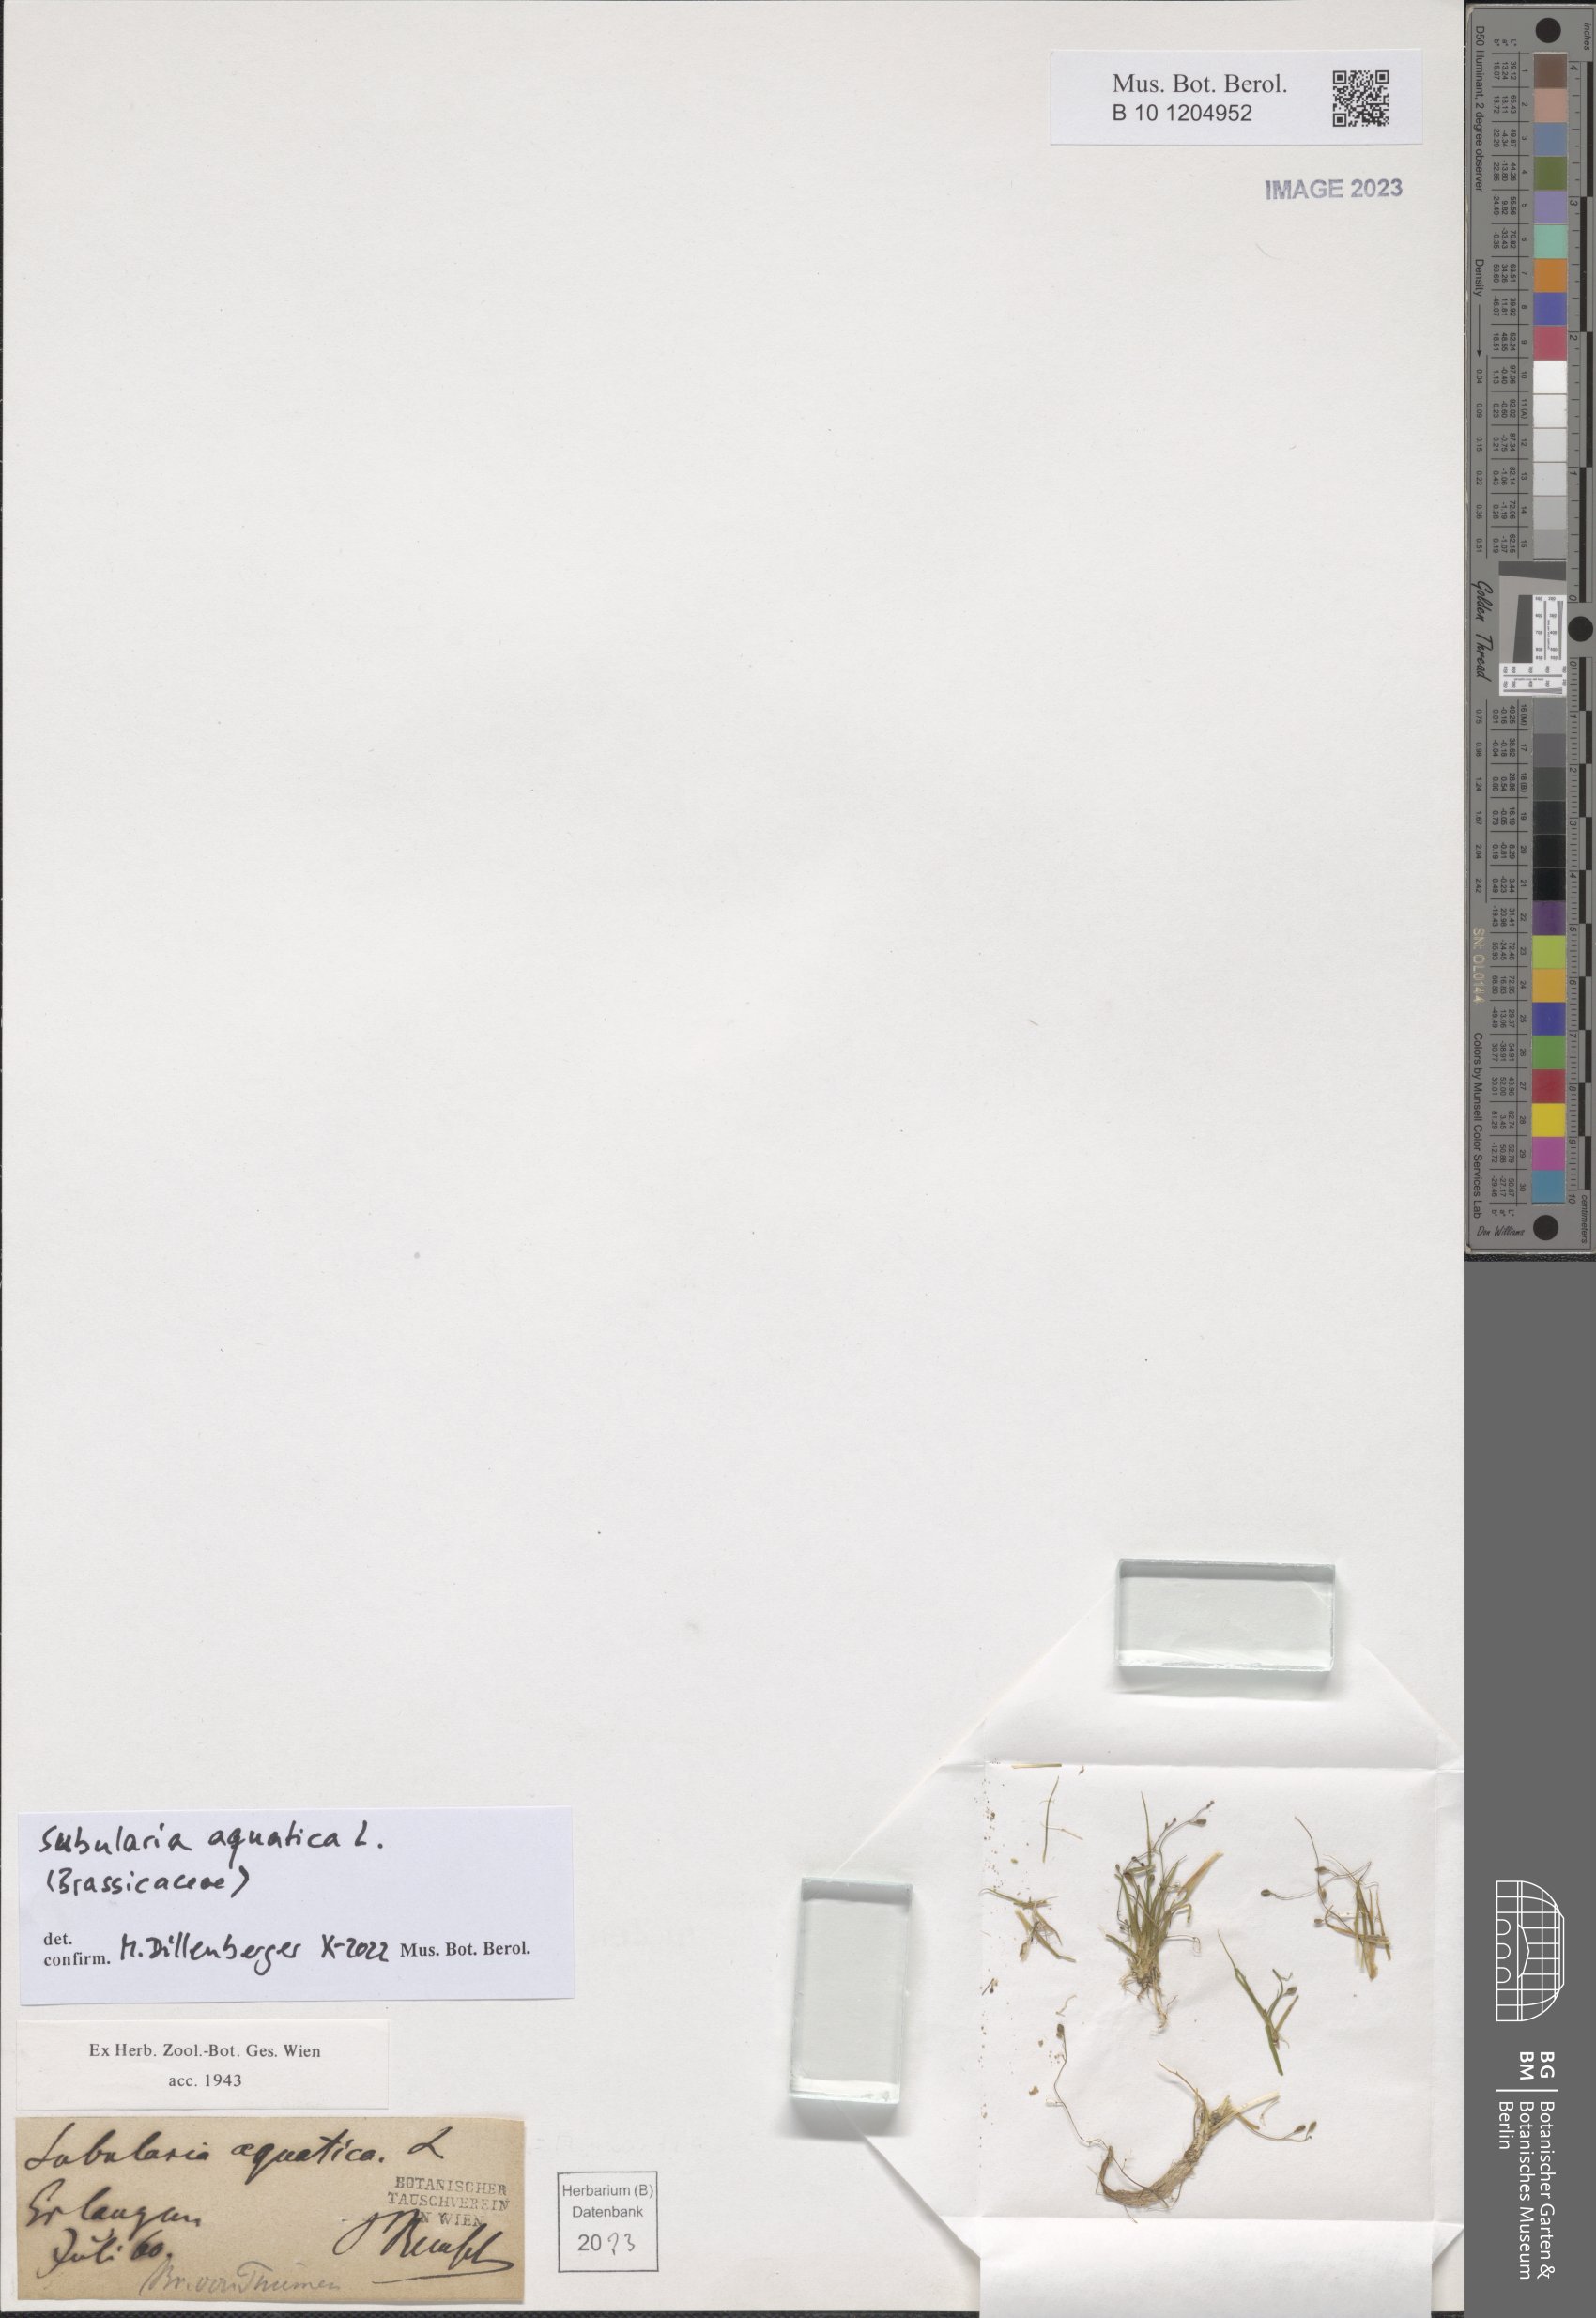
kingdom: Plantae
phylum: Tracheophyta
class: Magnoliopsida
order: Brassicales
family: Brassicaceae
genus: Subularia
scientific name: Subularia aquatica
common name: Awlwort
